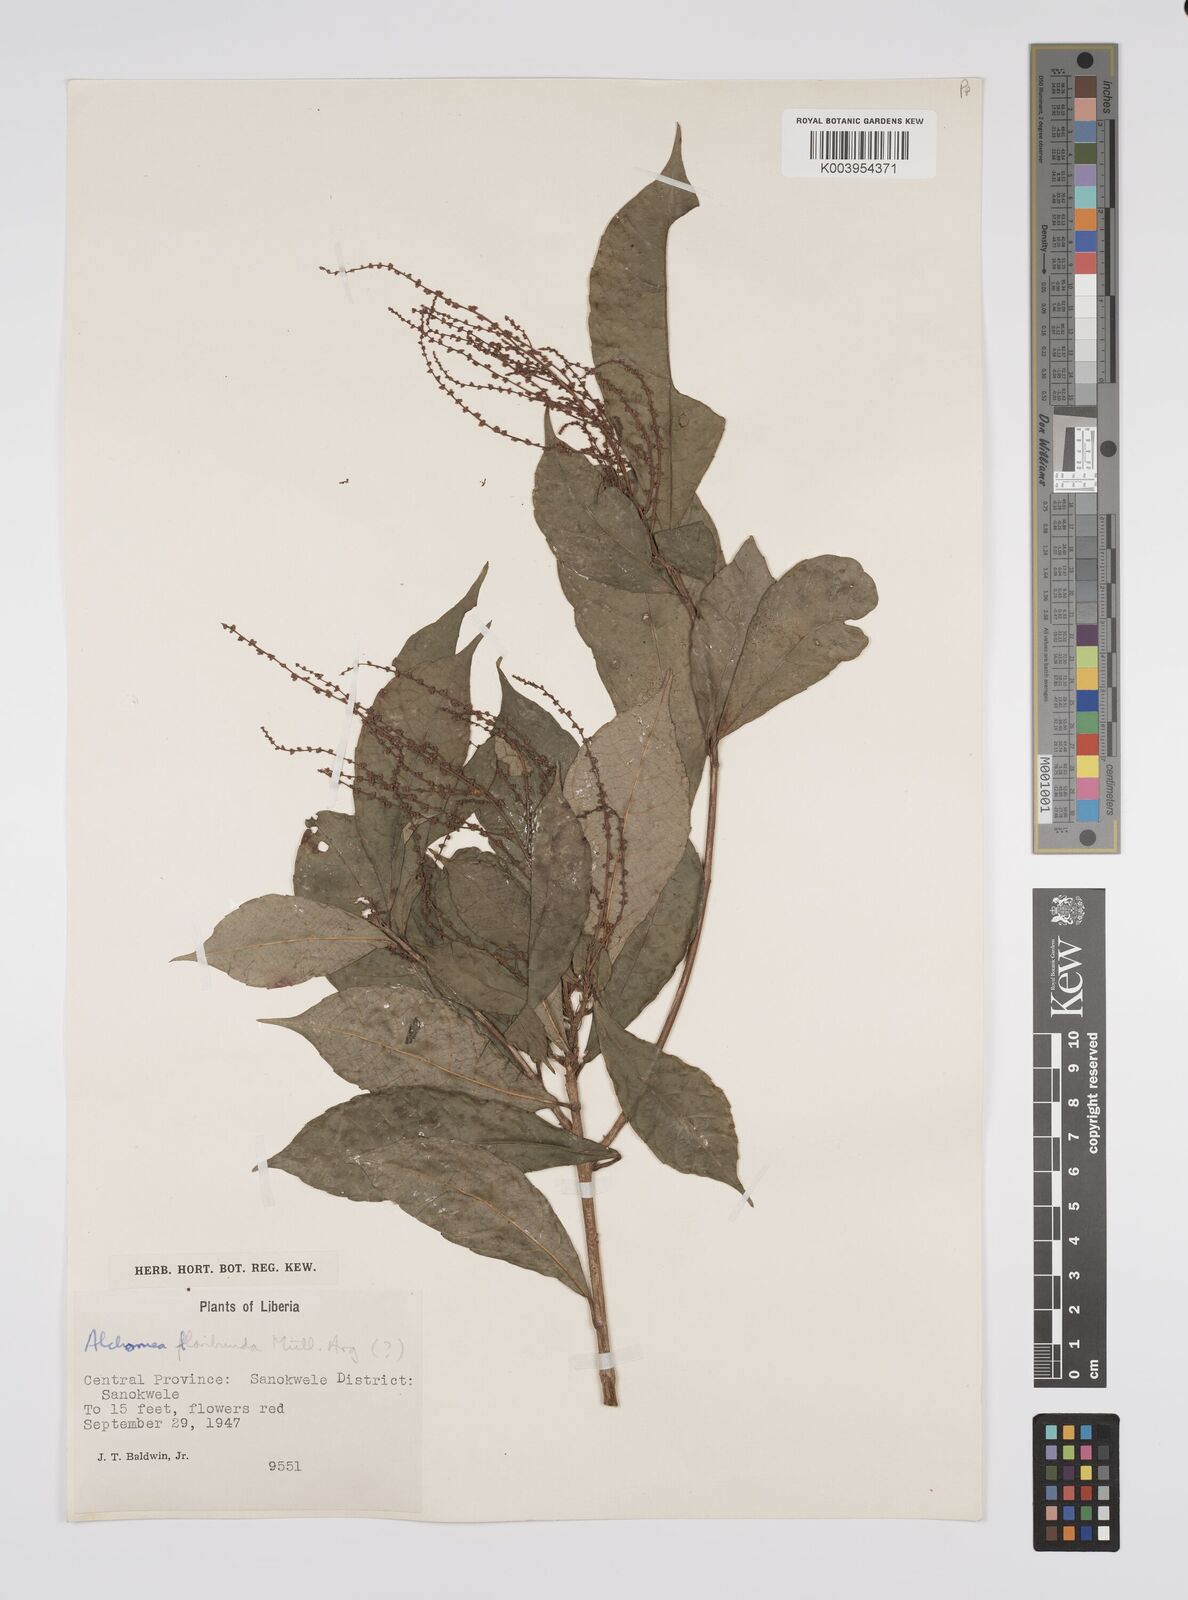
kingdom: Plantae
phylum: Tracheophyta
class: Magnoliopsida
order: Malpighiales
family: Euphorbiaceae
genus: Alchornea
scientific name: Alchornea floribunda
